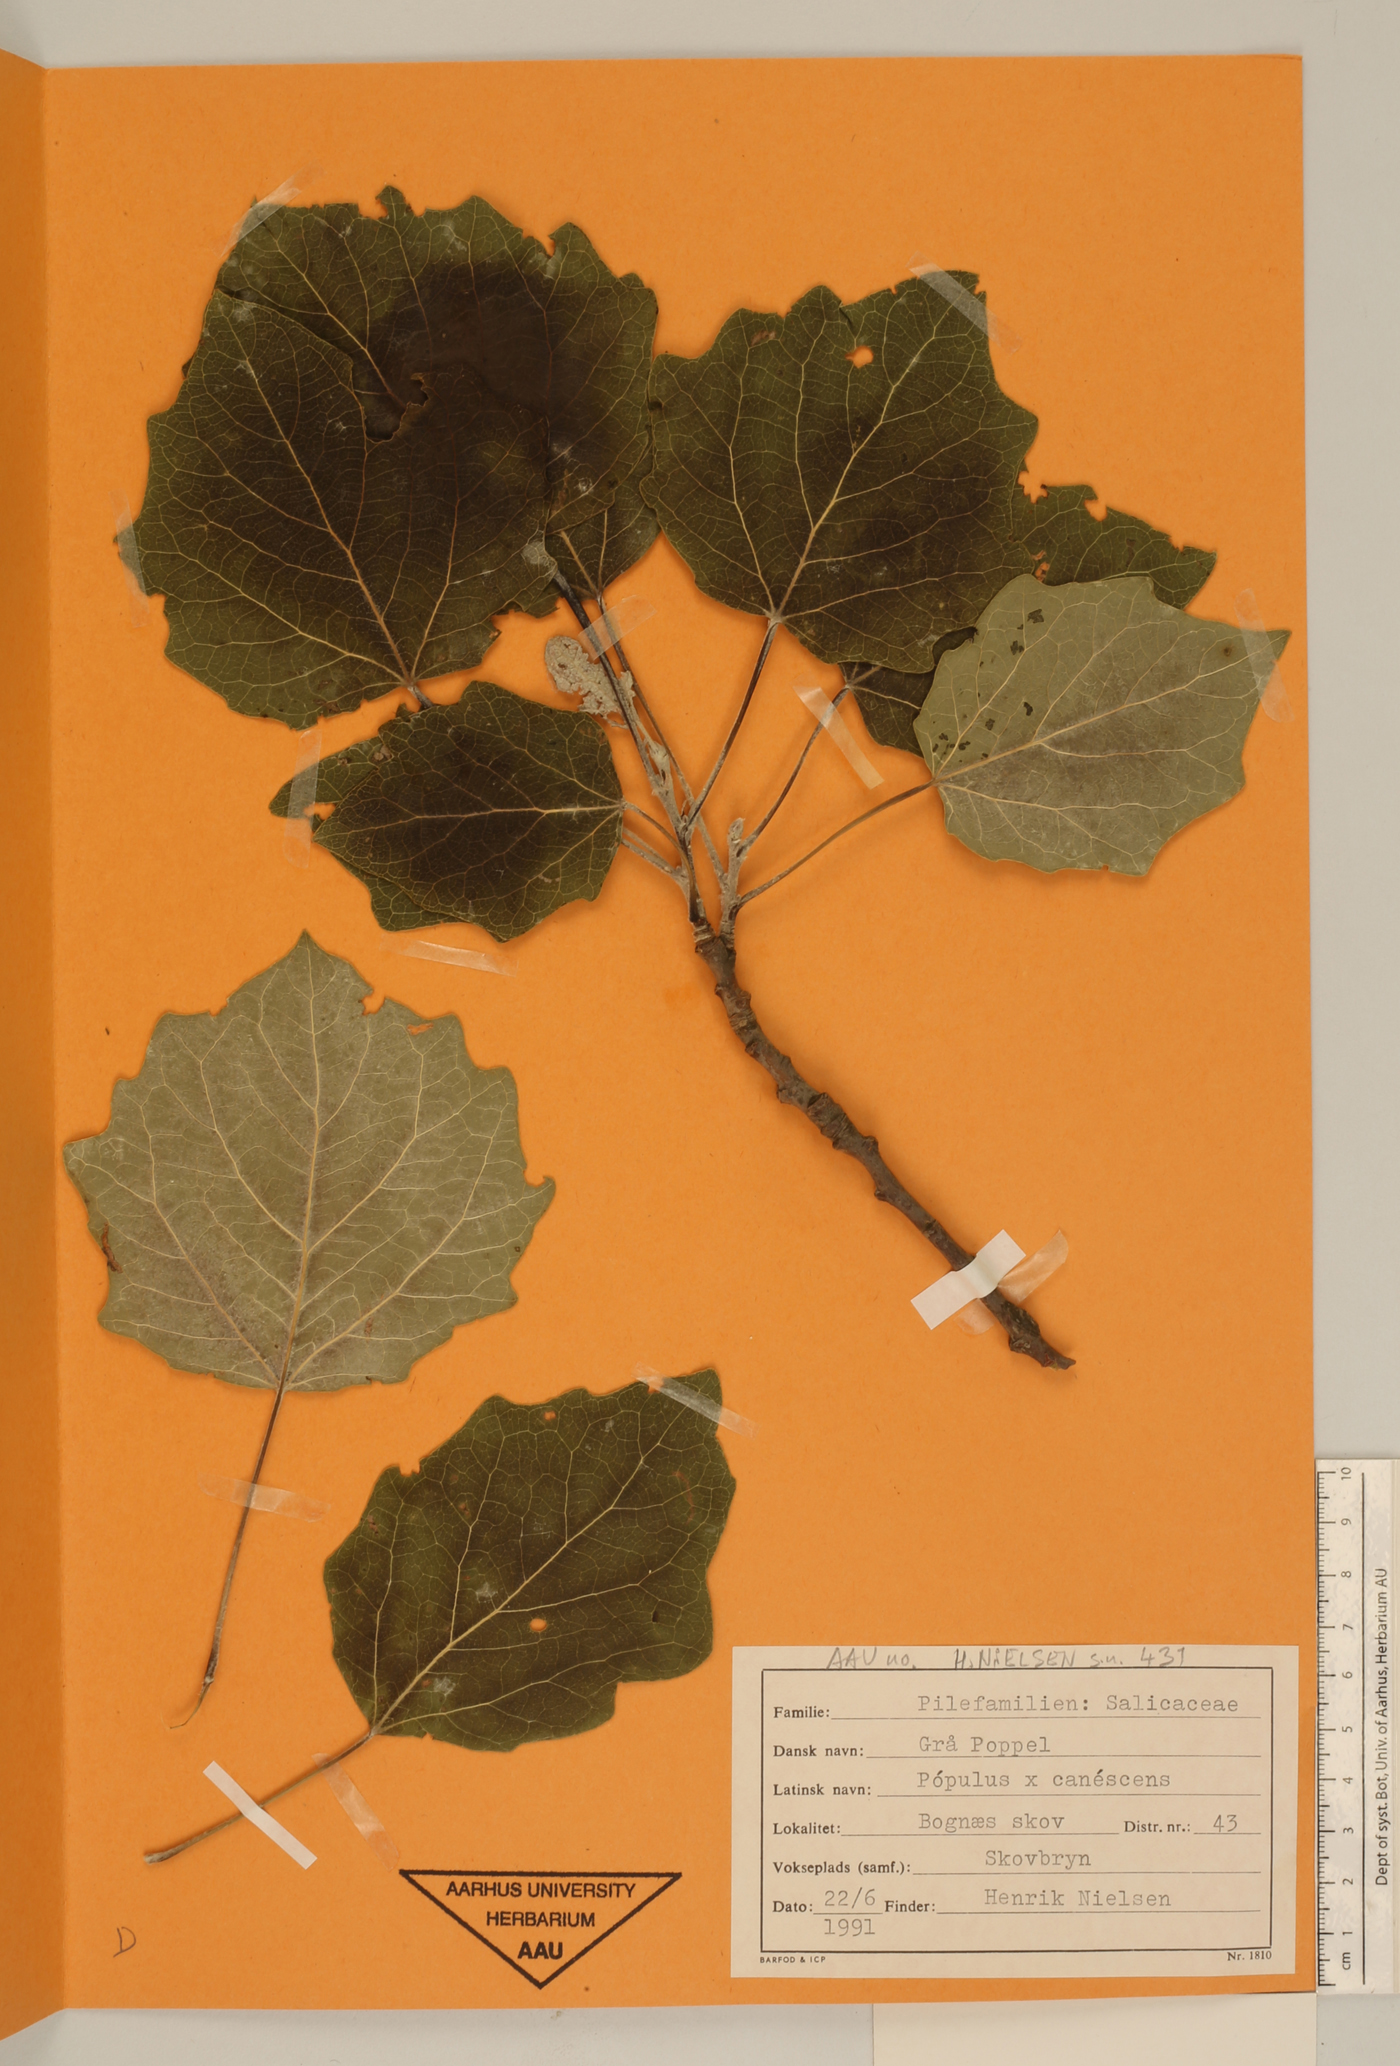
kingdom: Plantae
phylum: Tracheophyta
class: Magnoliopsida
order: Malpighiales
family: Salicaceae
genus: Populus
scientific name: Populus canescens
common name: Gray poplar
